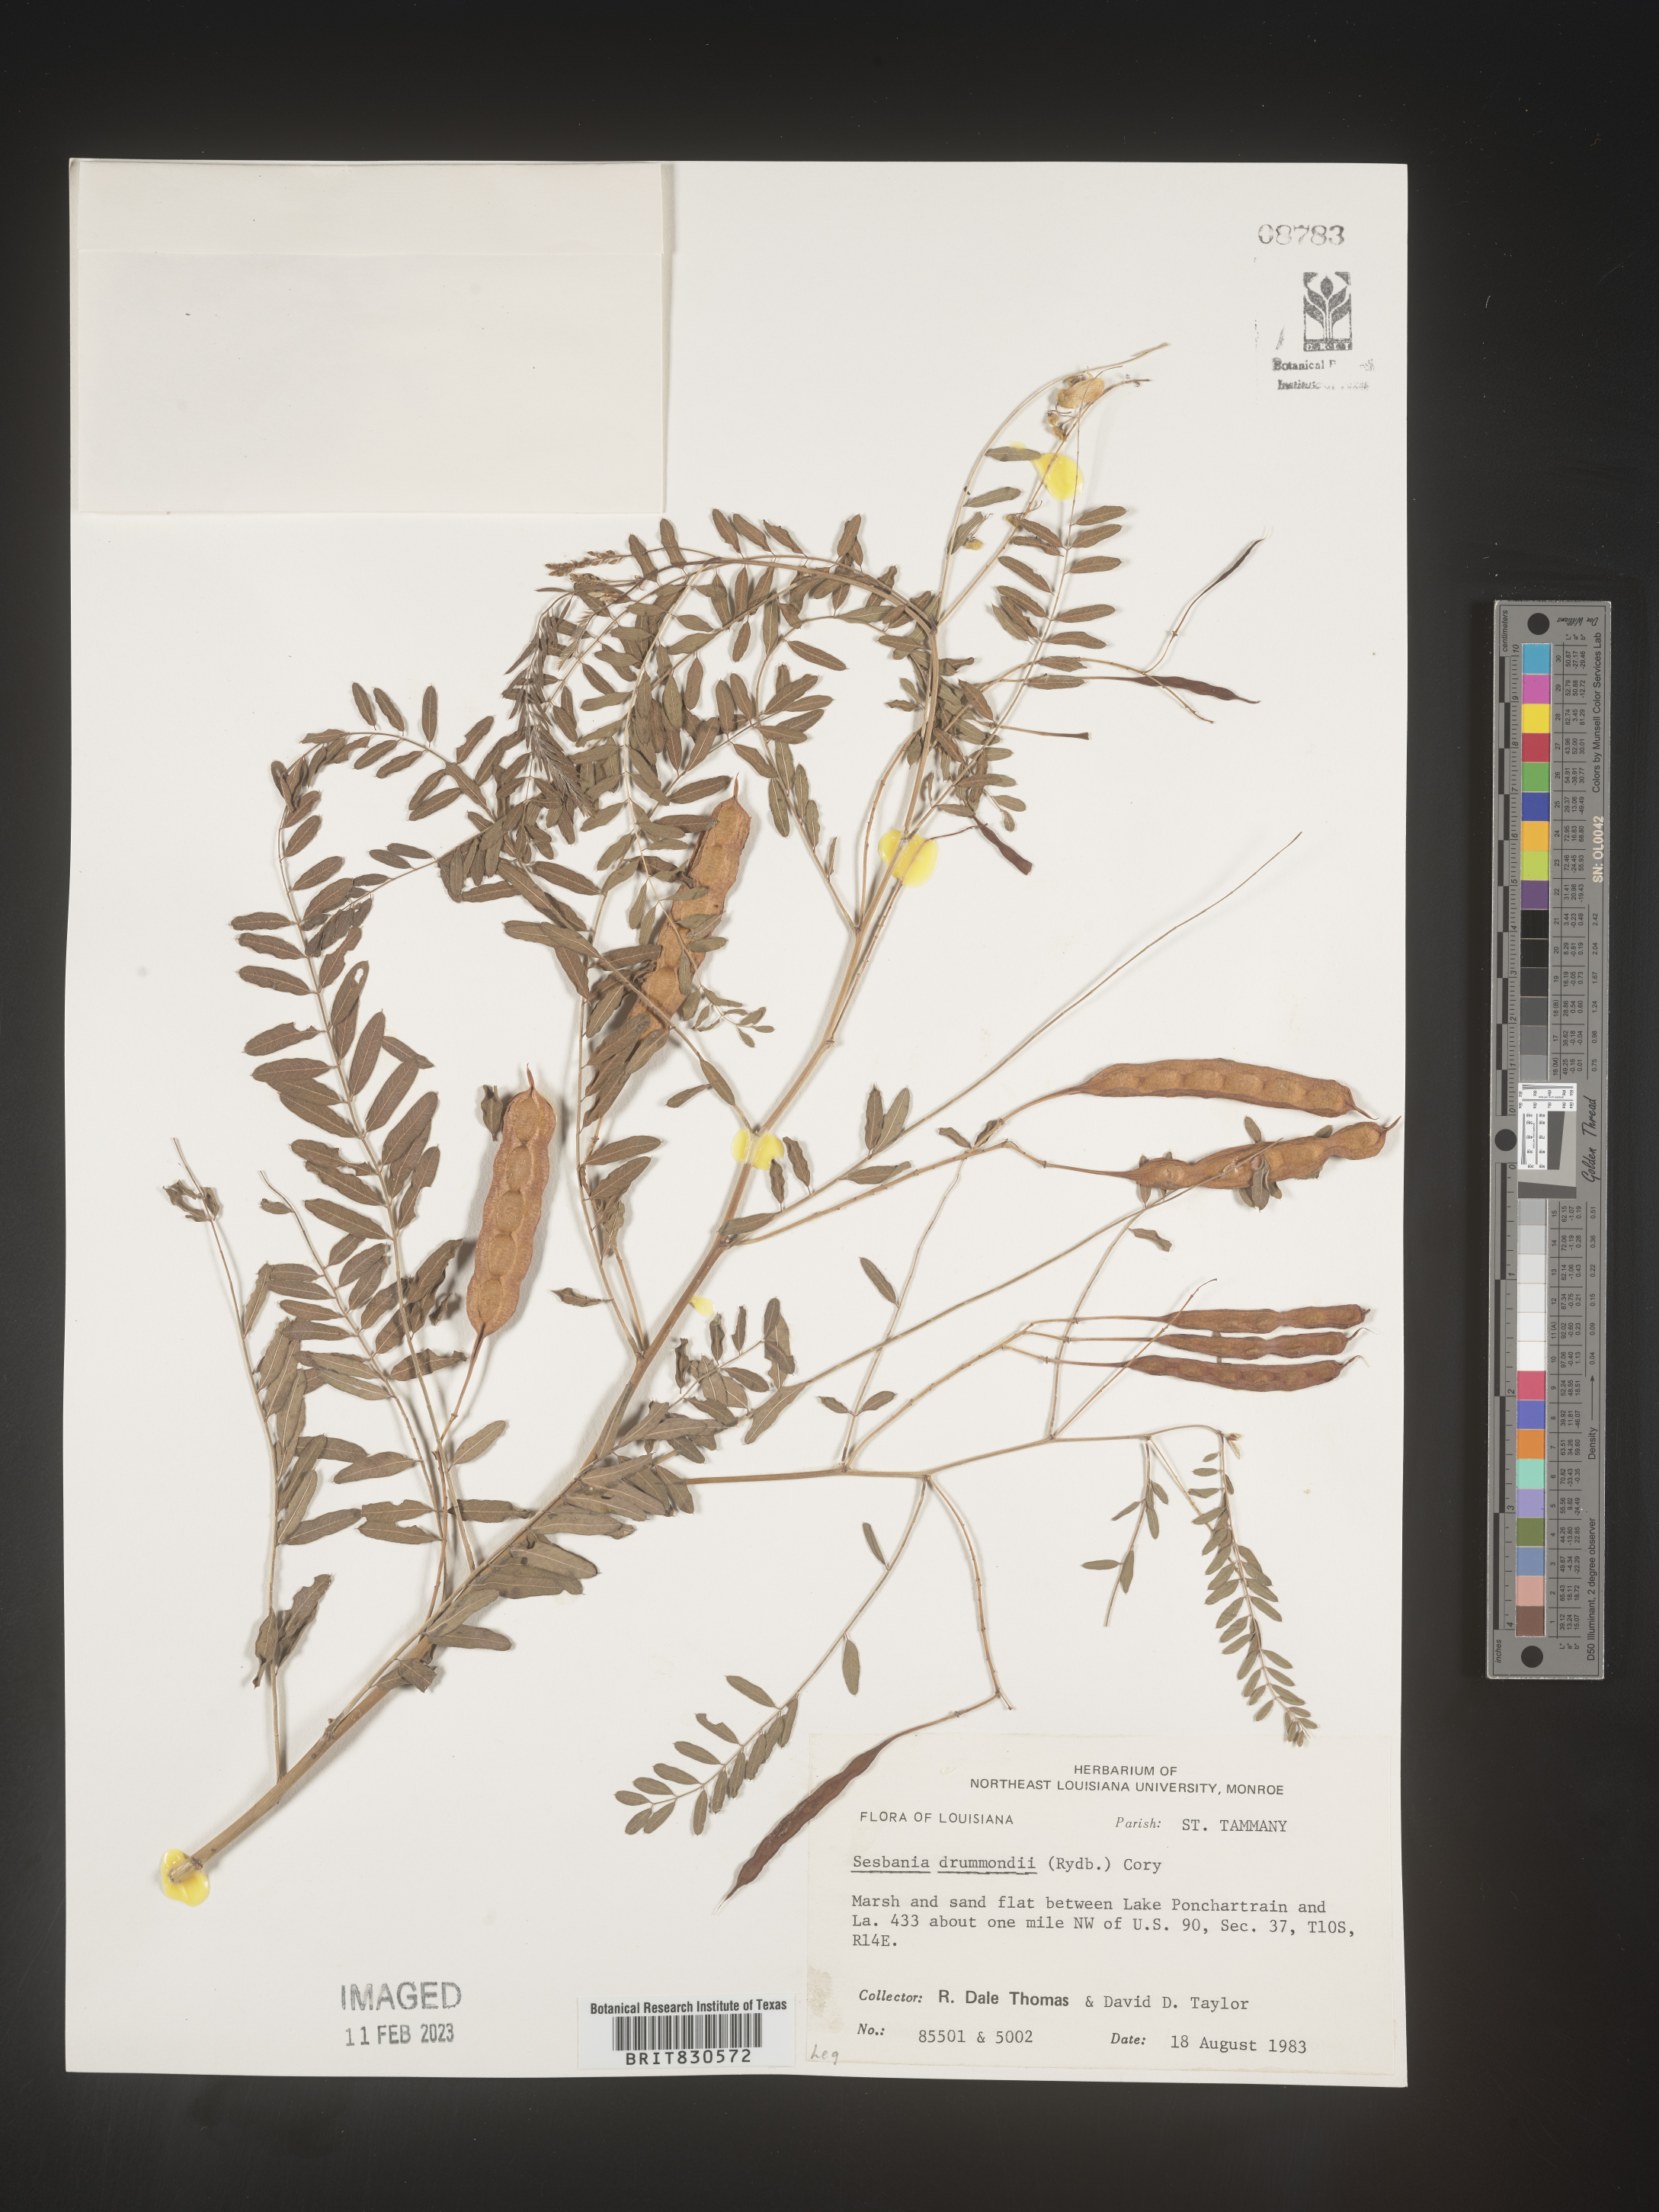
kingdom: Plantae
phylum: Tracheophyta
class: Magnoliopsida
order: Fabales
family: Fabaceae
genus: Sesbania
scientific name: Sesbania drummondii
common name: Poison-bean
